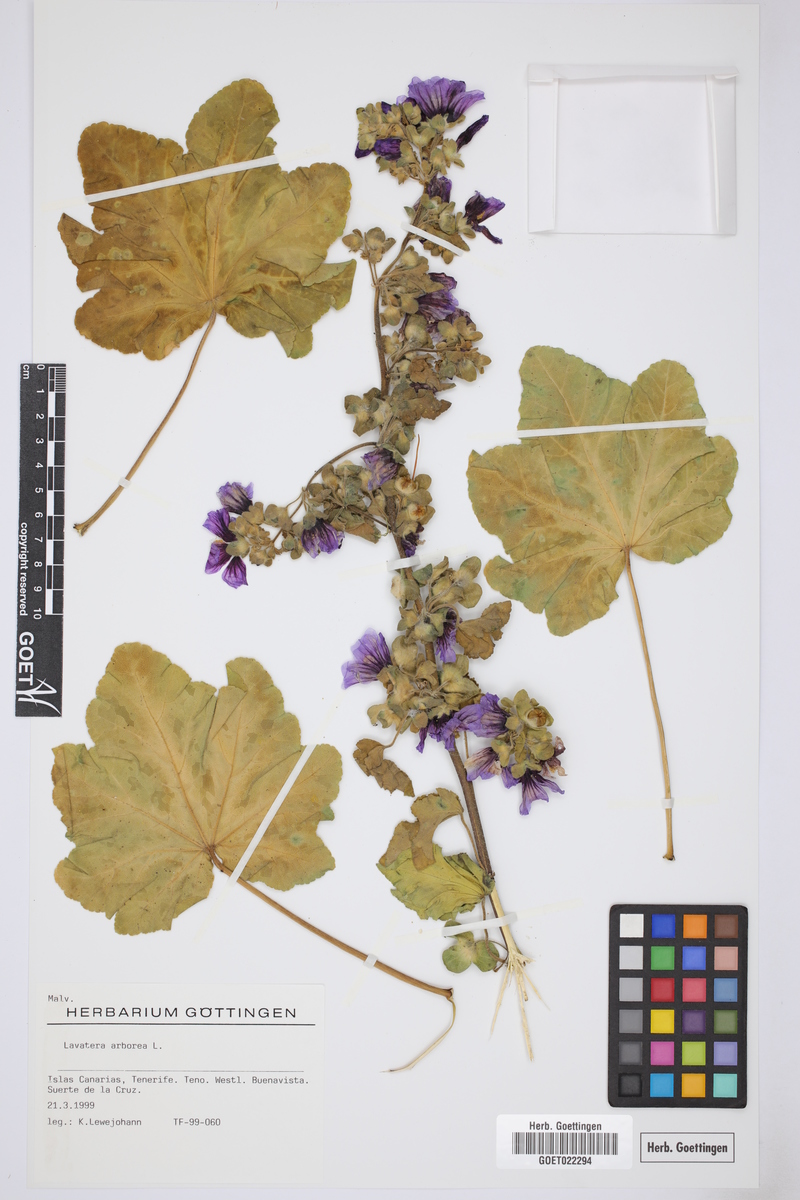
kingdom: Plantae
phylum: Tracheophyta
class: Magnoliopsida
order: Malvales
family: Malvaceae
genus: Malva
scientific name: Malva arborea
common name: Tree mallow
